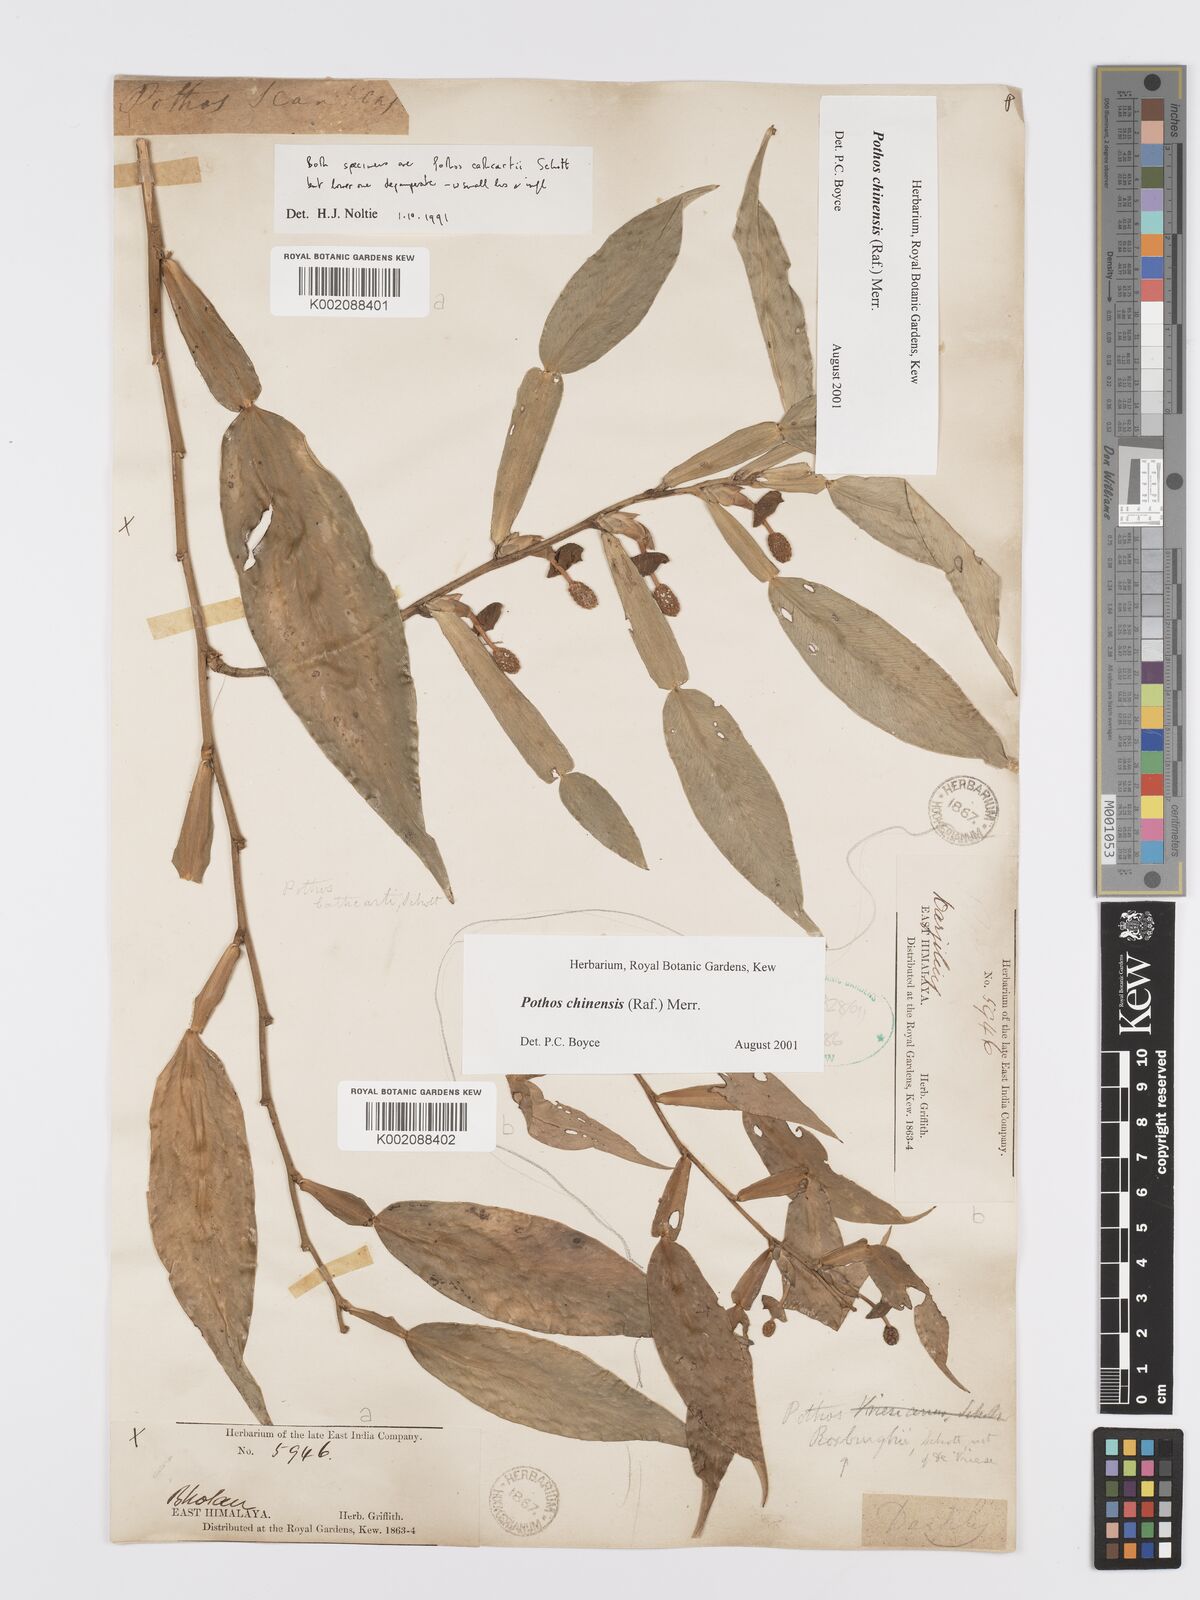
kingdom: Plantae
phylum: Tracheophyta
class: Liliopsida
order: Alismatales
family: Araceae
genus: Pothos
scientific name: Pothos chinensis
